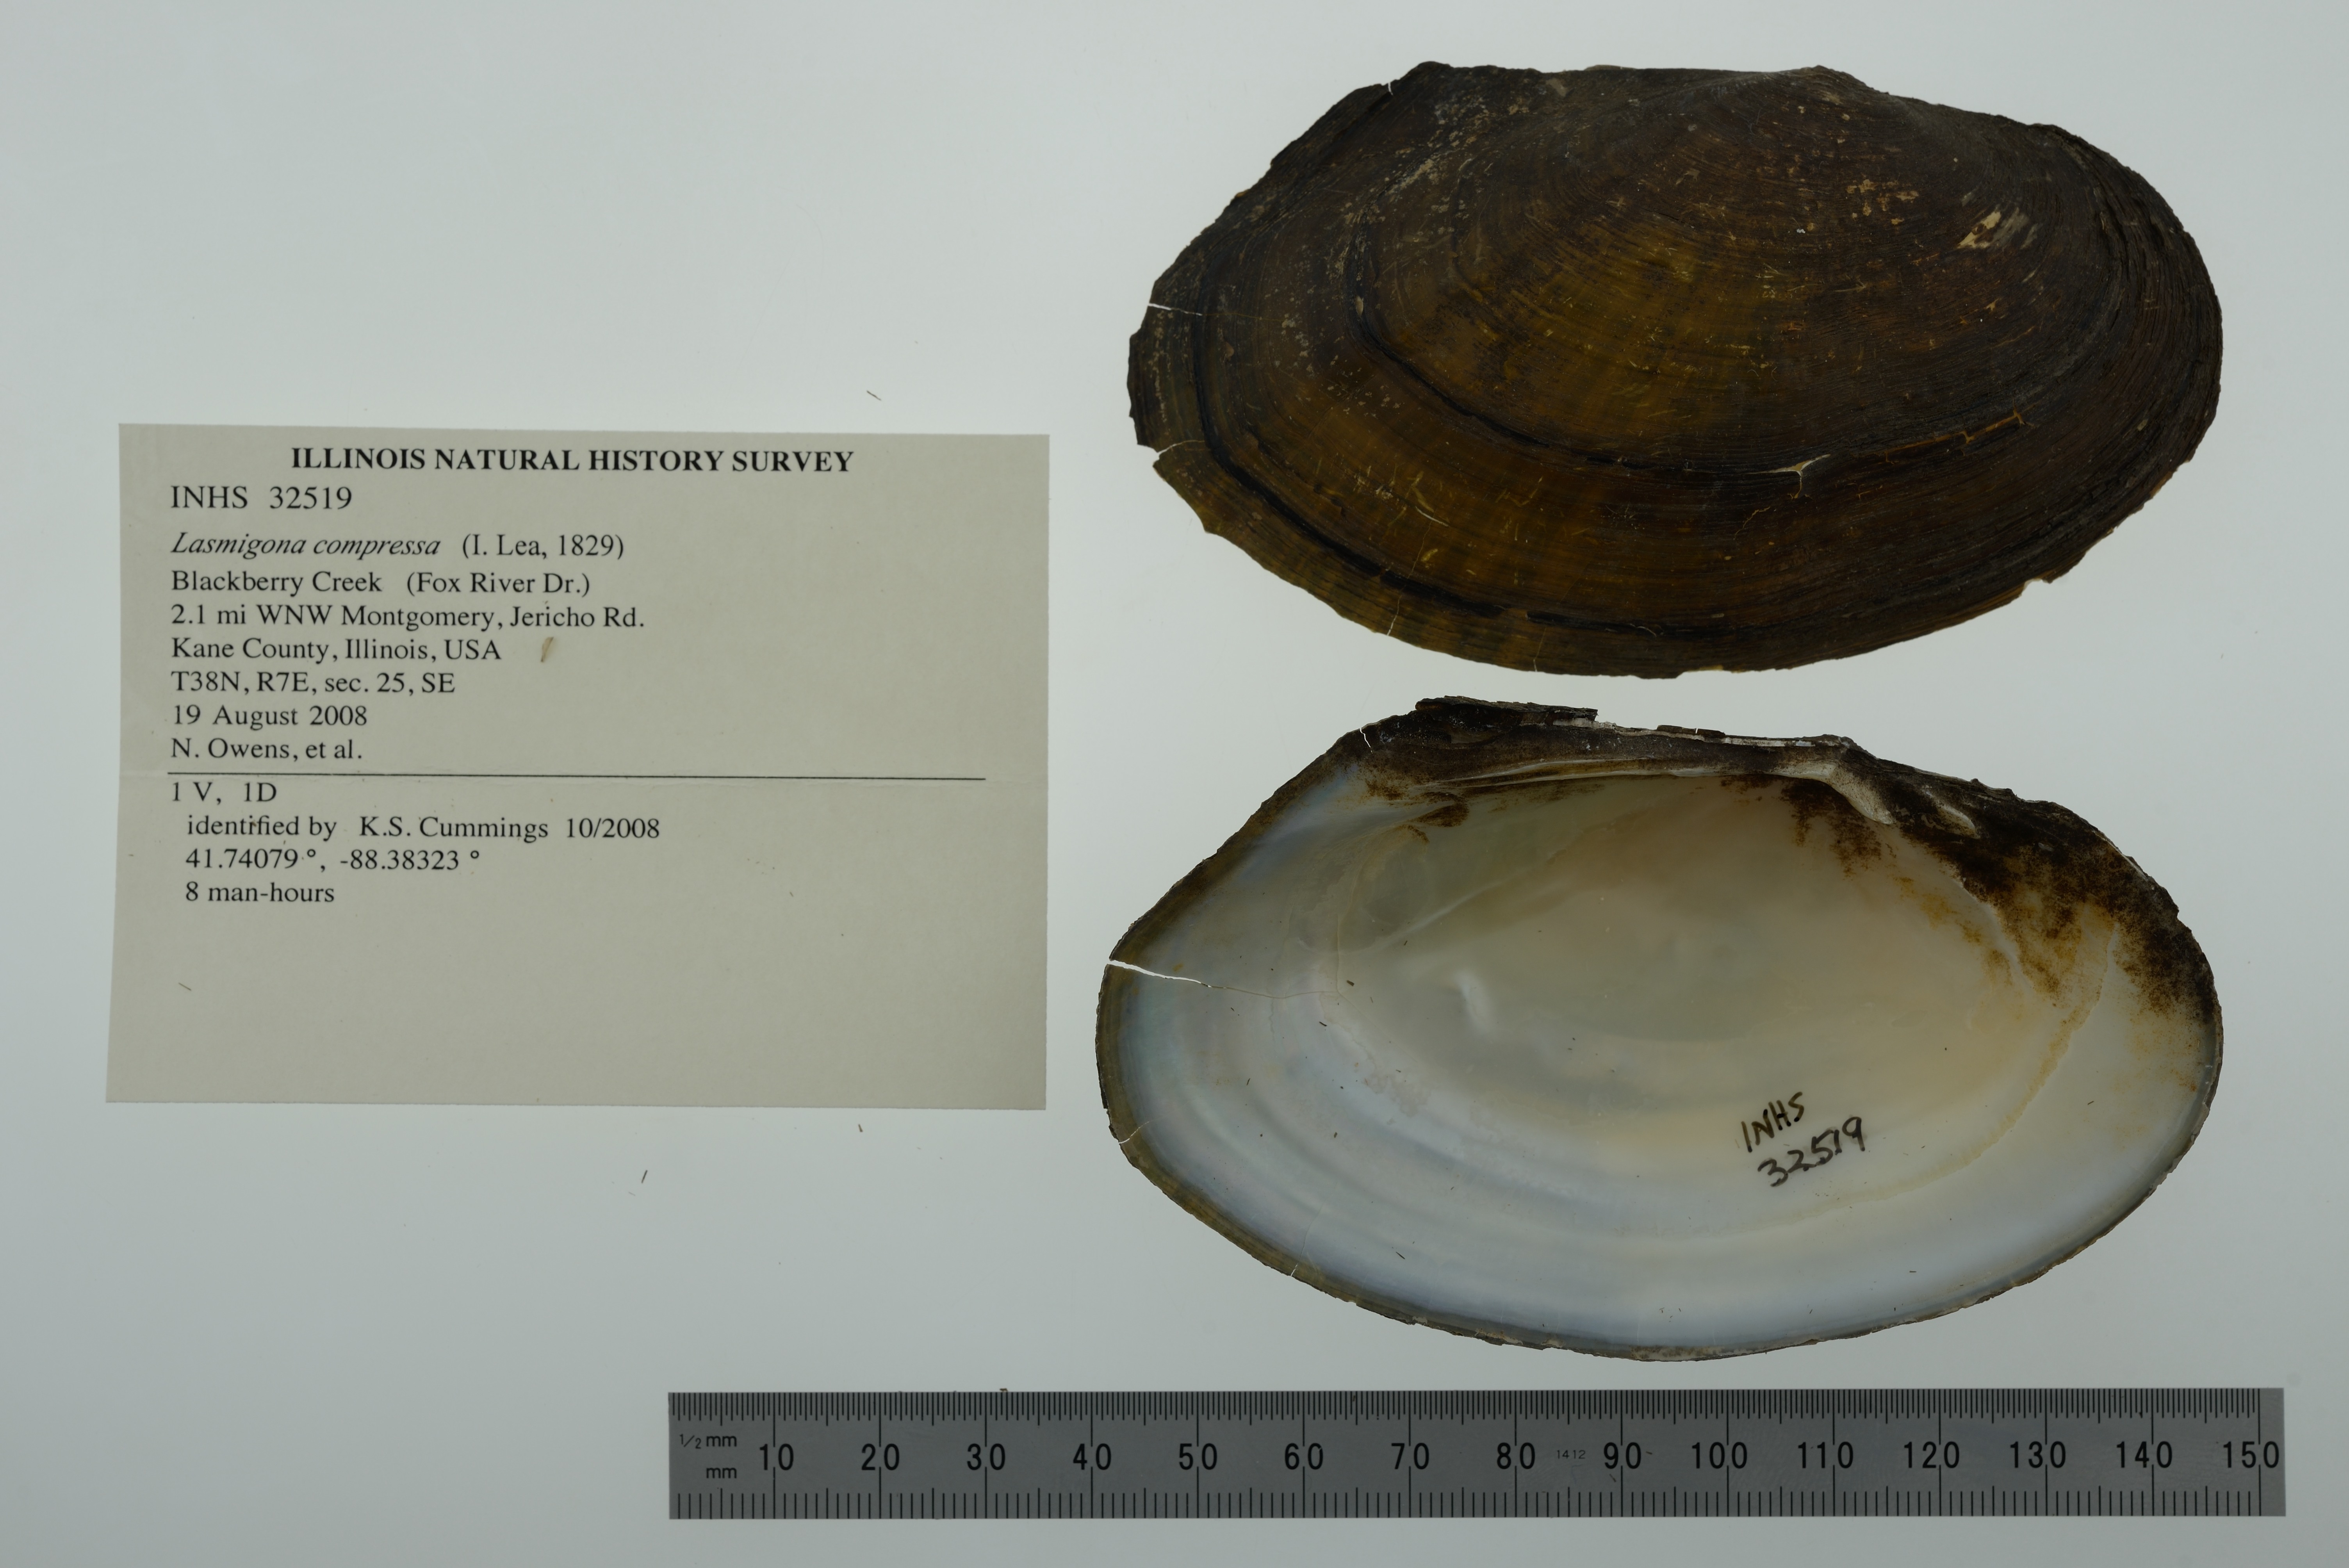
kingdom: Animalia
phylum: Mollusca
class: Bivalvia
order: Unionida
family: Unionidae
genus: Lasmigona
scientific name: Lasmigona compressa
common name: Creek heelsplitter
